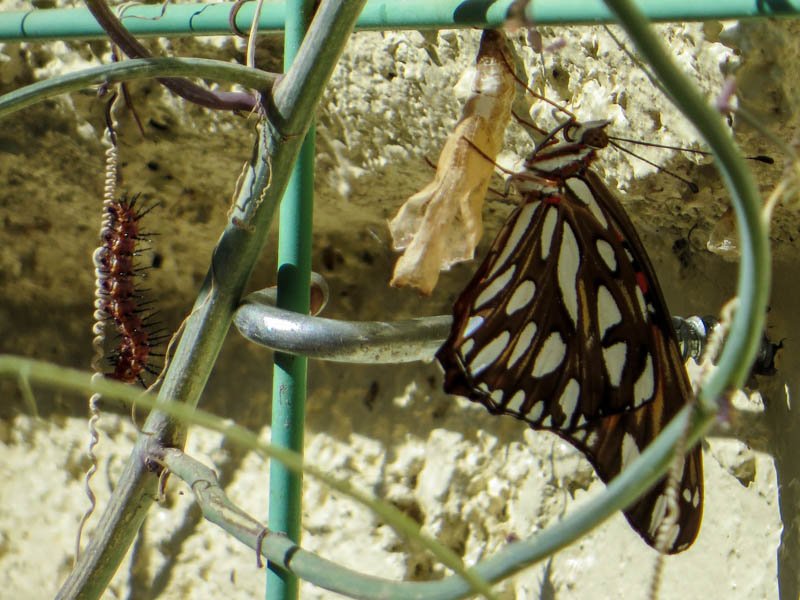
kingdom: Animalia
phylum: Arthropoda
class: Insecta
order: Lepidoptera
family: Nymphalidae
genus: Dione
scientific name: Dione vanillae
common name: Gulf Fritillary
